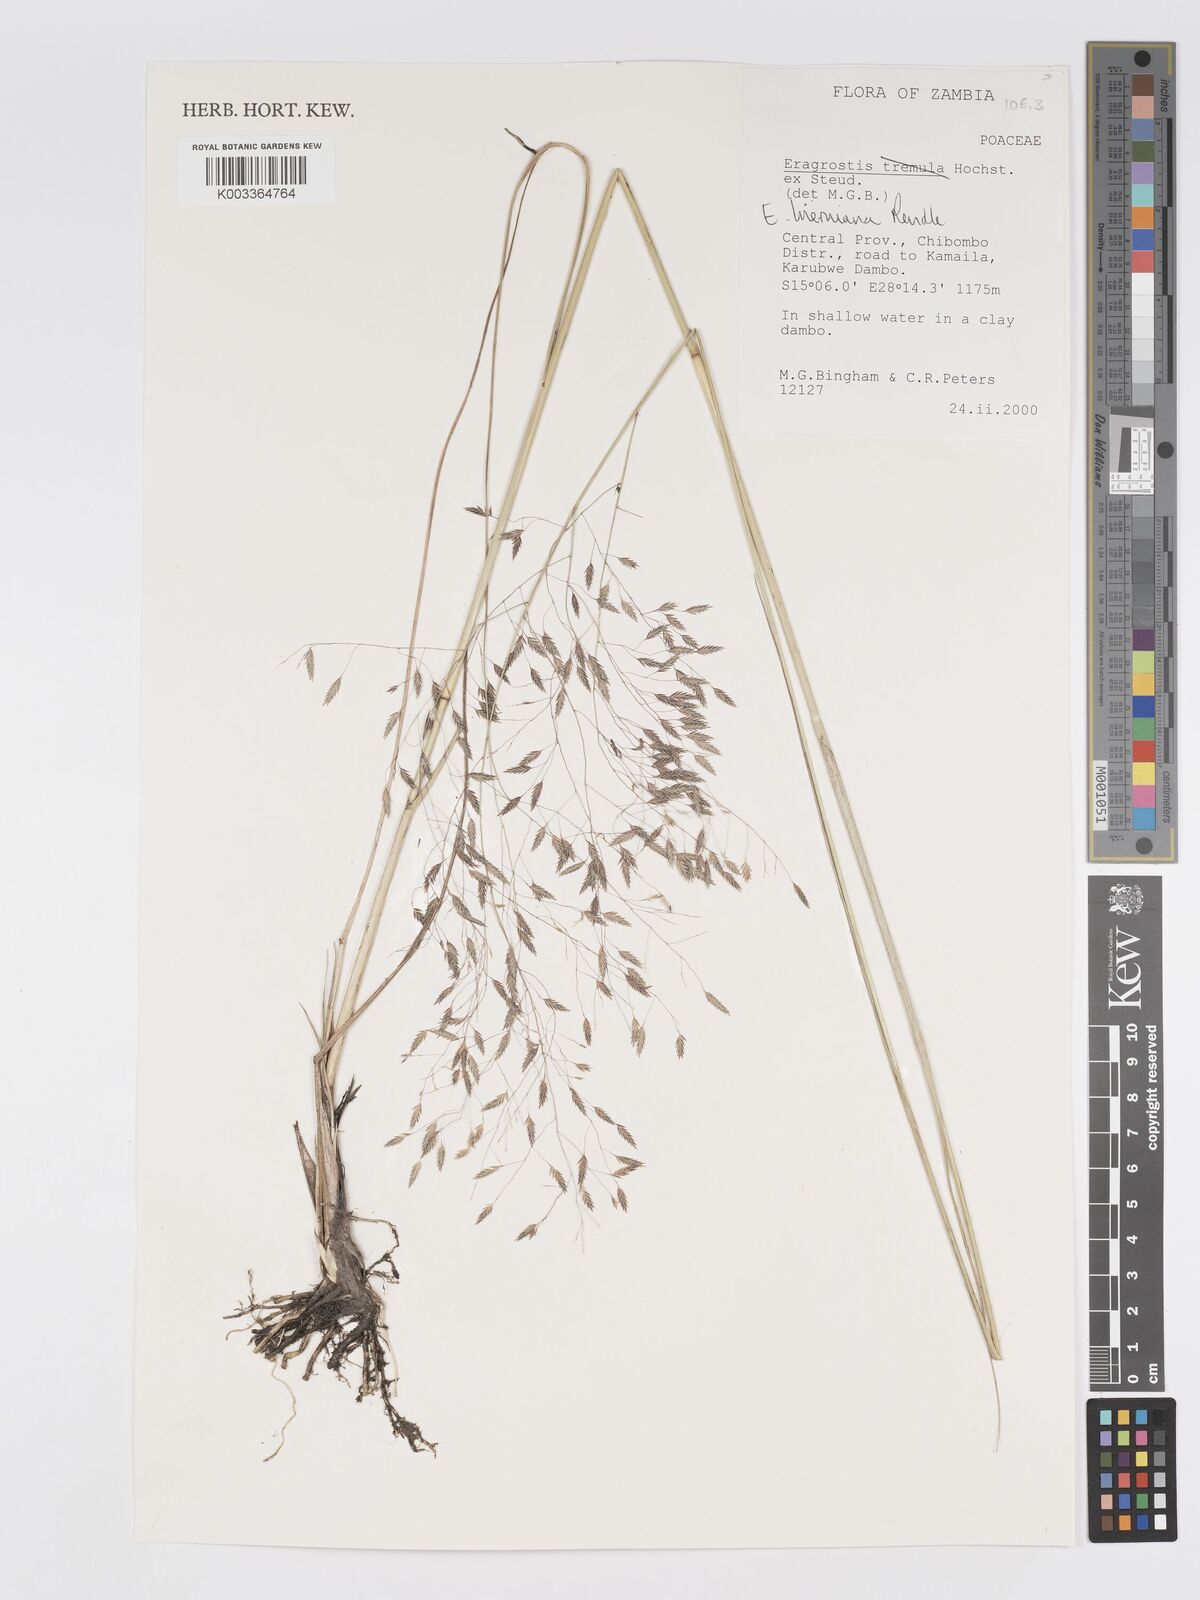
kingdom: Plantae
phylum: Tracheophyta
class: Liliopsida
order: Poales
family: Poaceae
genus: Eragrostis
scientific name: Eragrostis hierniana
